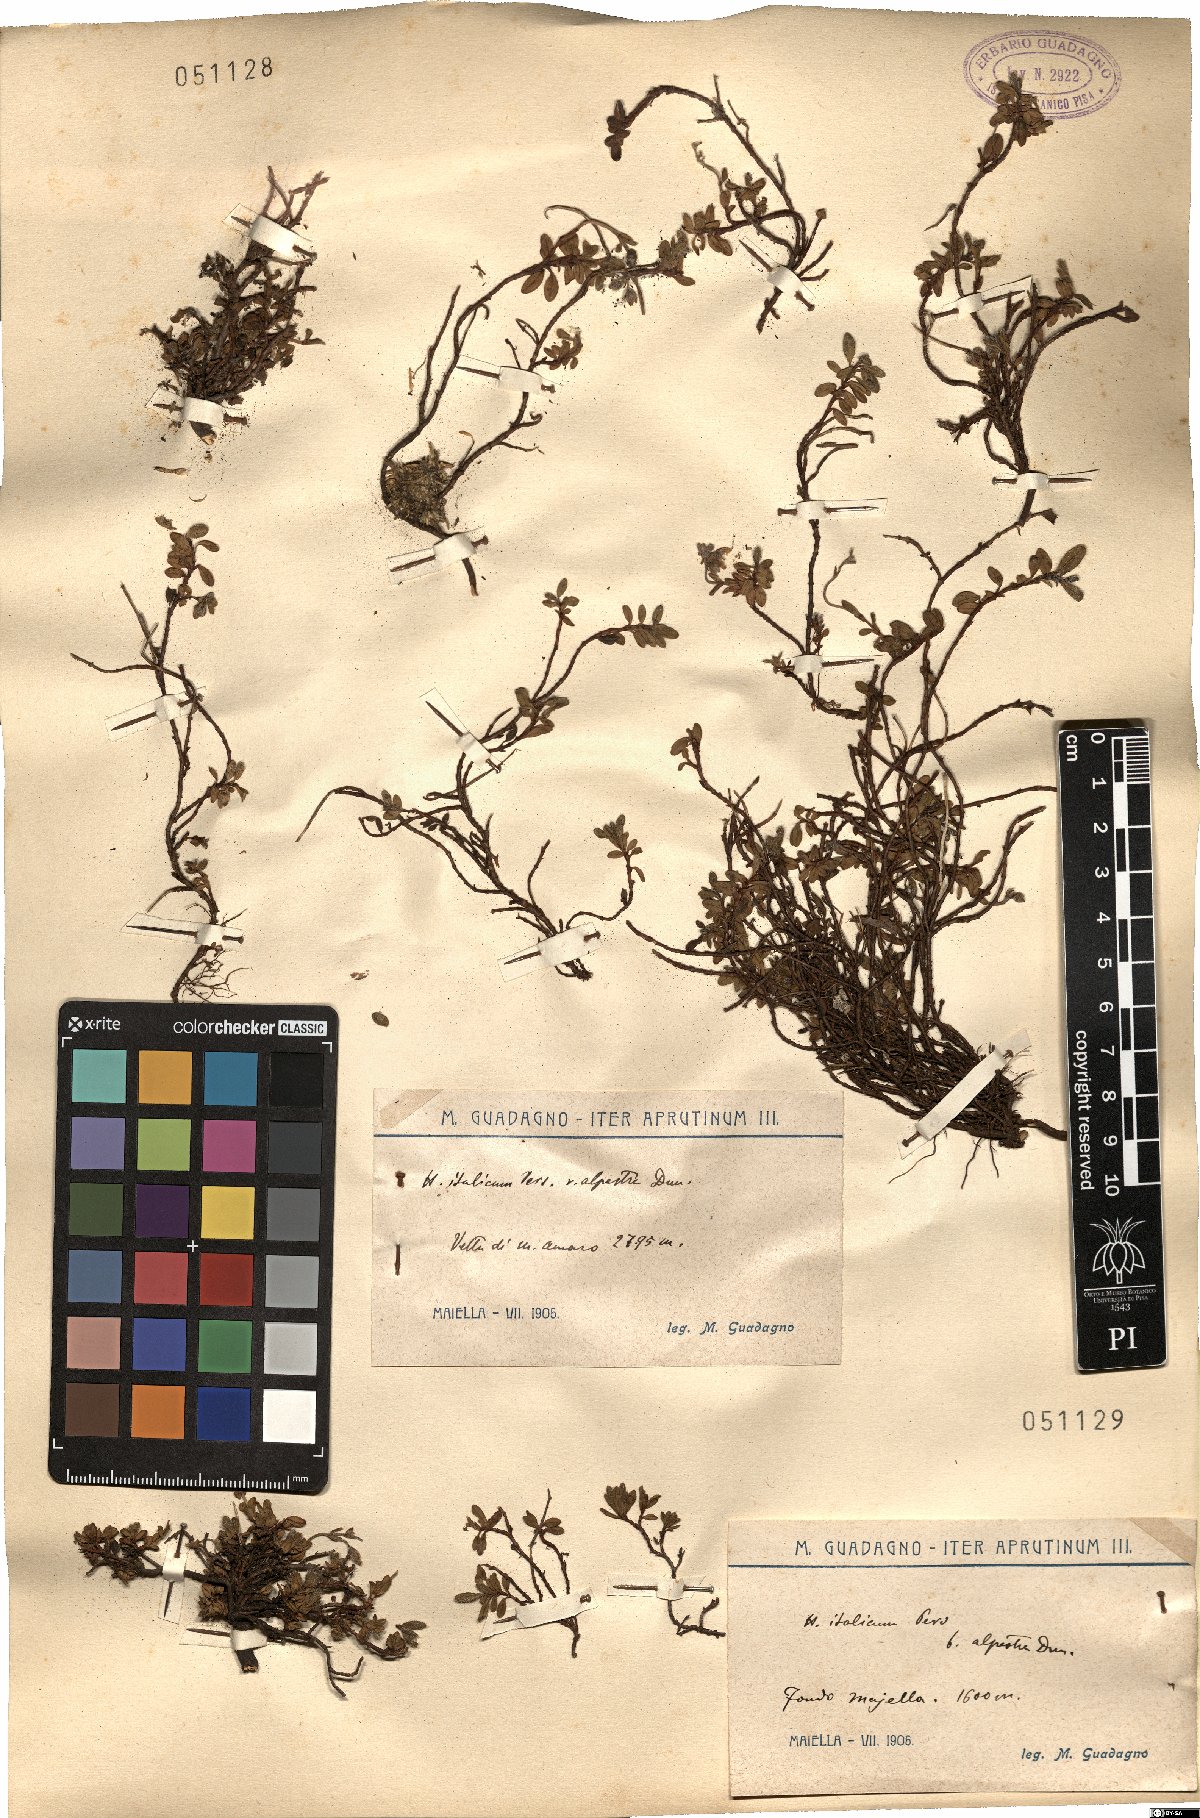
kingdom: Plantae
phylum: Tracheophyta
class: Magnoliopsida
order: Malvales
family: Cistaceae
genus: Helianthemum
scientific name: Helianthemum alpestre
